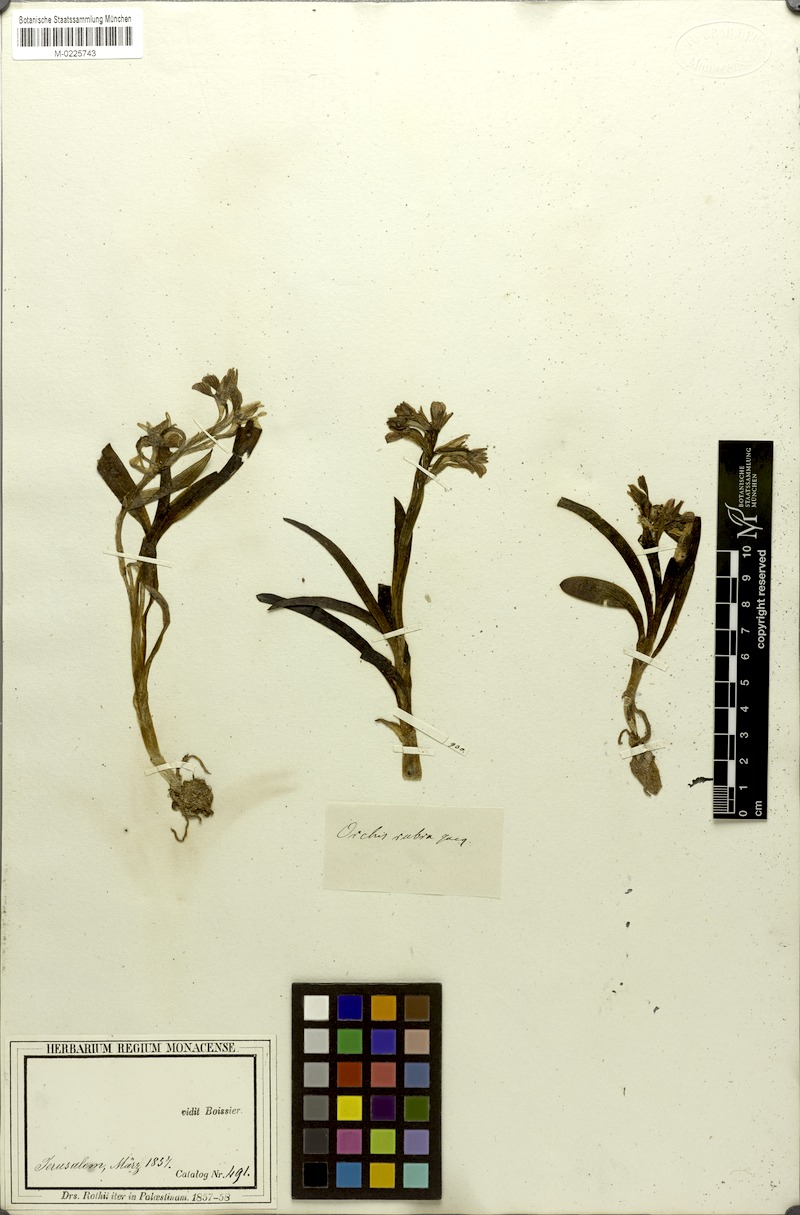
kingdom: Plantae
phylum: Tracheophyta
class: Liliopsida
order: Asparagales
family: Orchidaceae
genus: Anacamptis
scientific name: Anacamptis papilionacea
